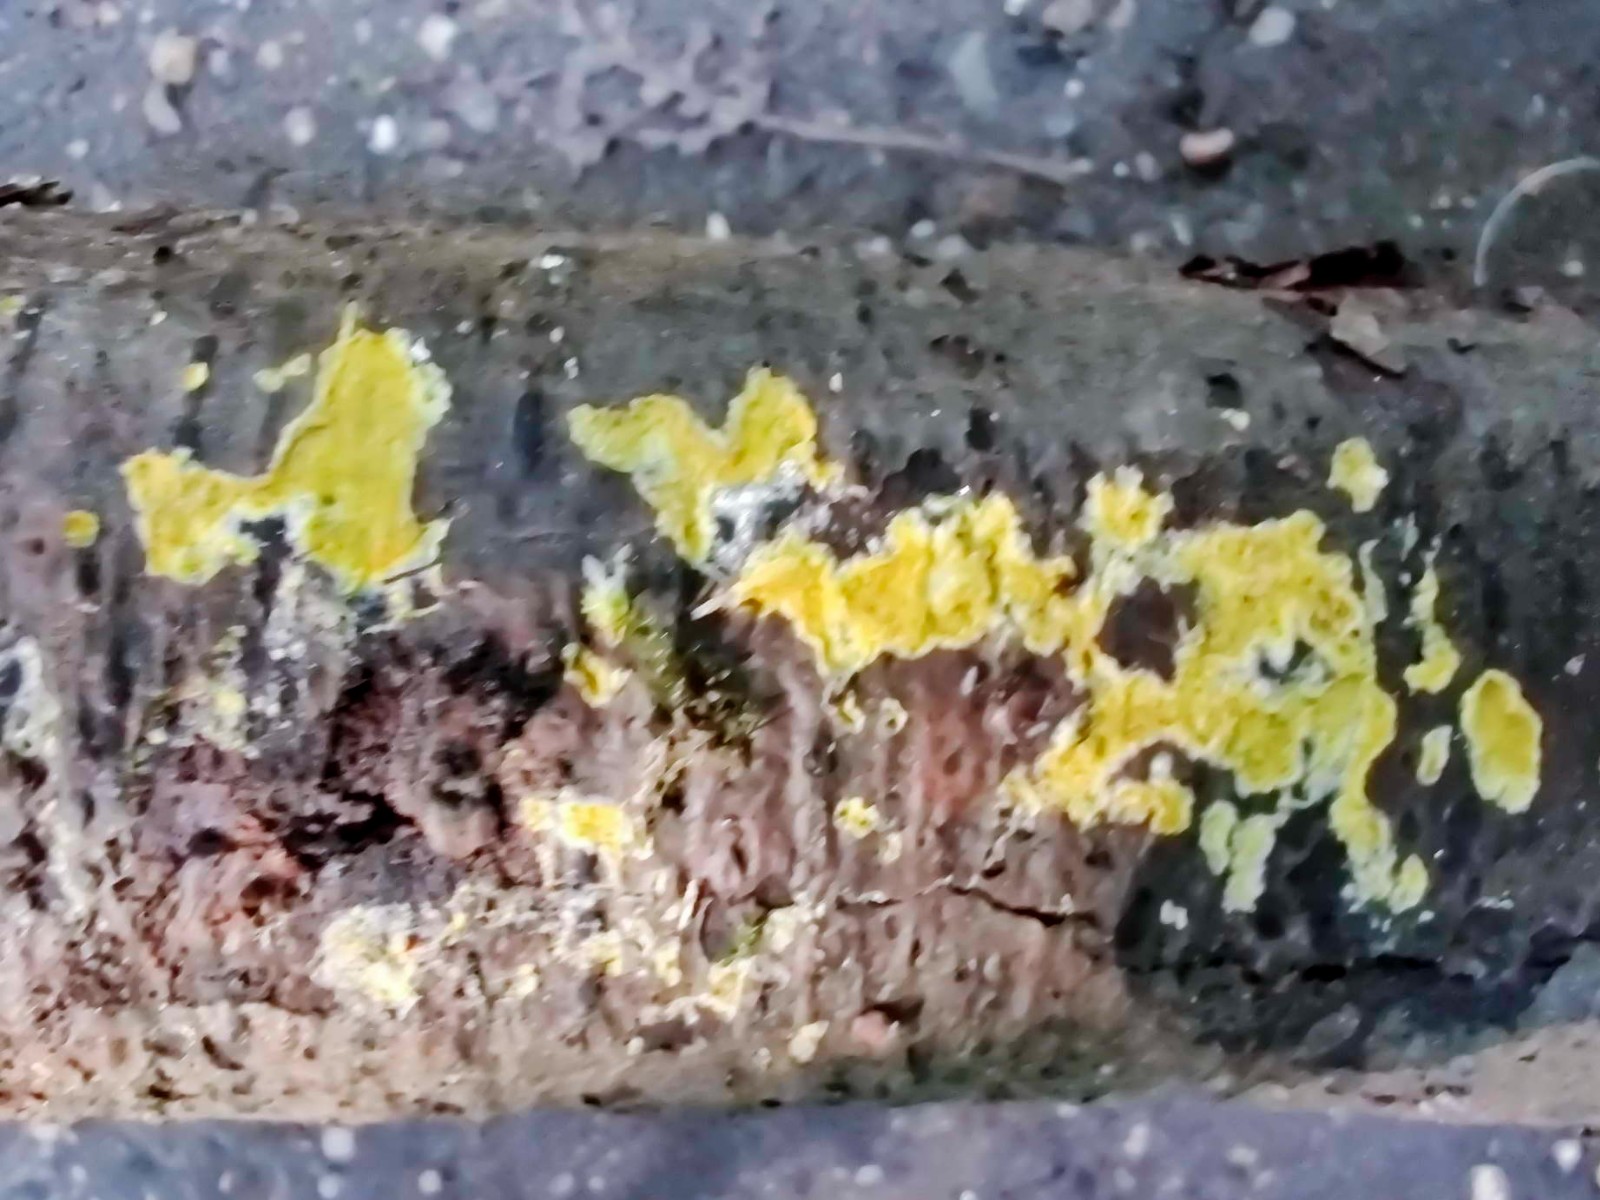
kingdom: Fungi
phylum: Basidiomycota
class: Agaricomycetes
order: Polyporales
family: Meruliaceae
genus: Phlebiodontia
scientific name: Phlebiodontia subochracea
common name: svovl-åresvamp
